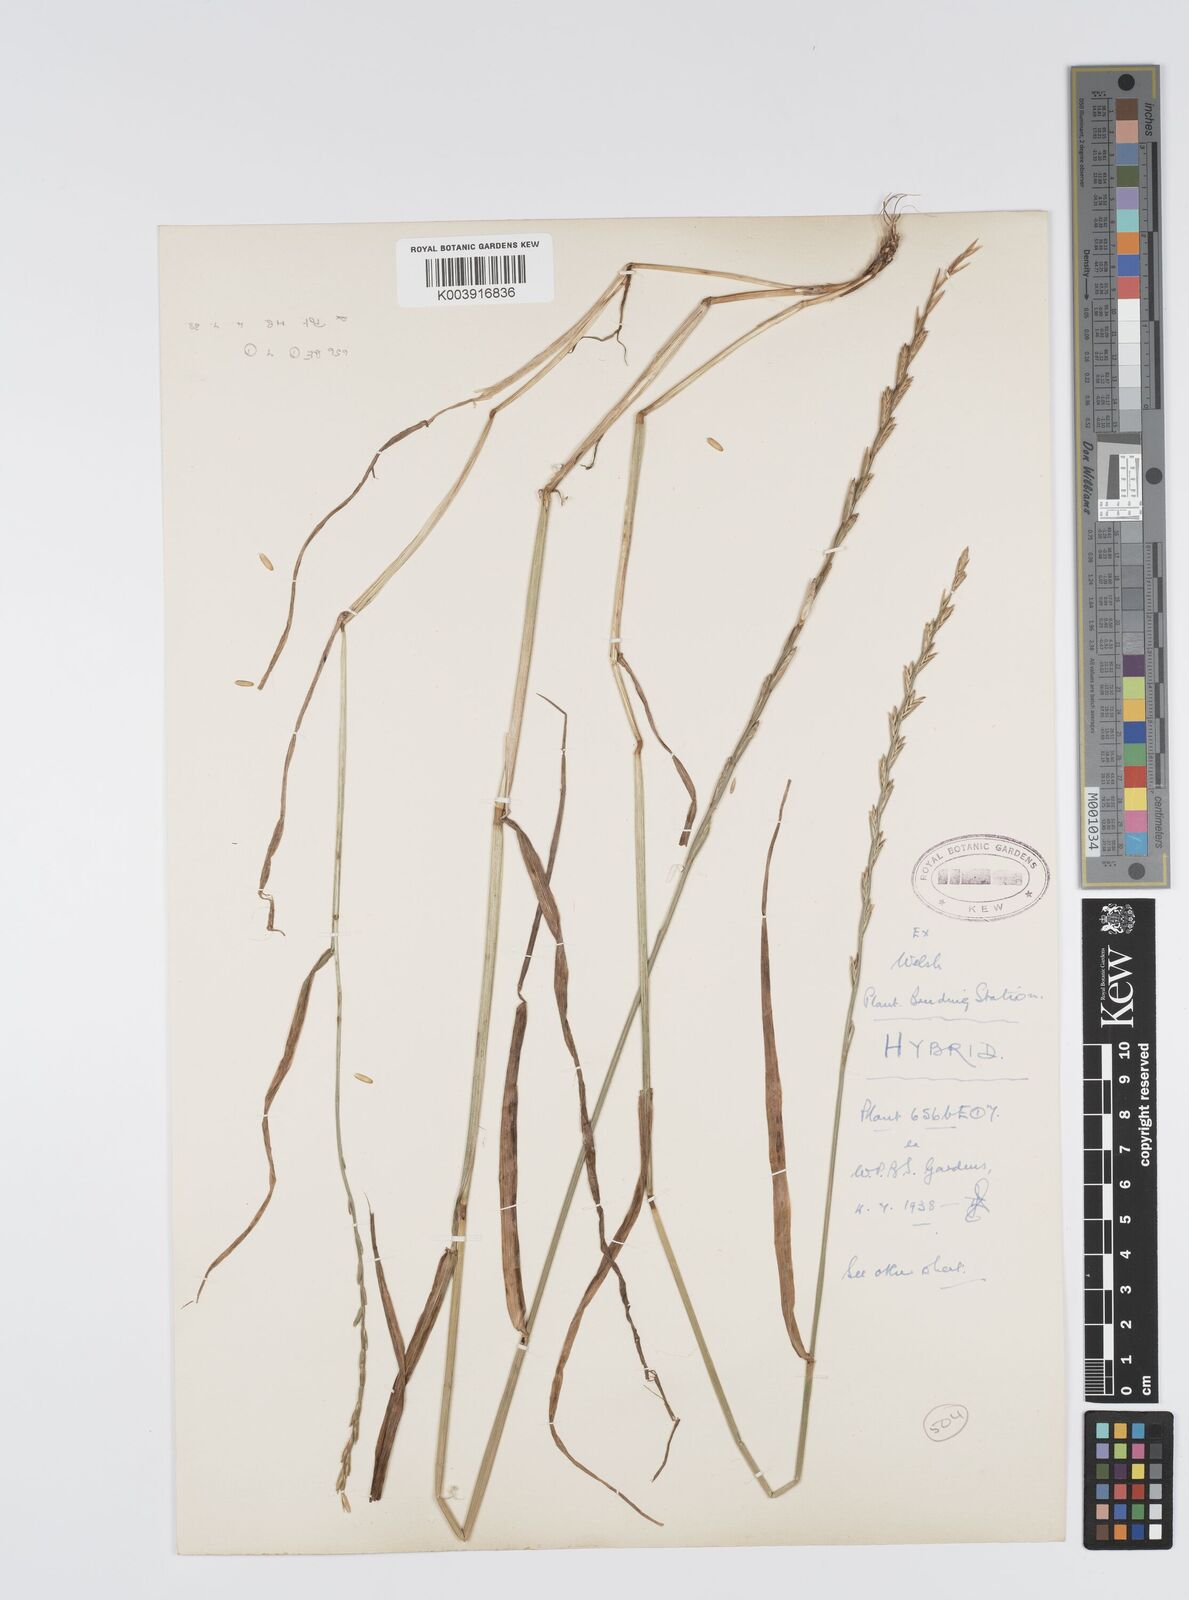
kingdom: Plantae
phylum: Tracheophyta
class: Liliopsida
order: Poales
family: Poaceae
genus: Lolium
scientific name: Lolium perenne
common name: Perennial ryegrass
